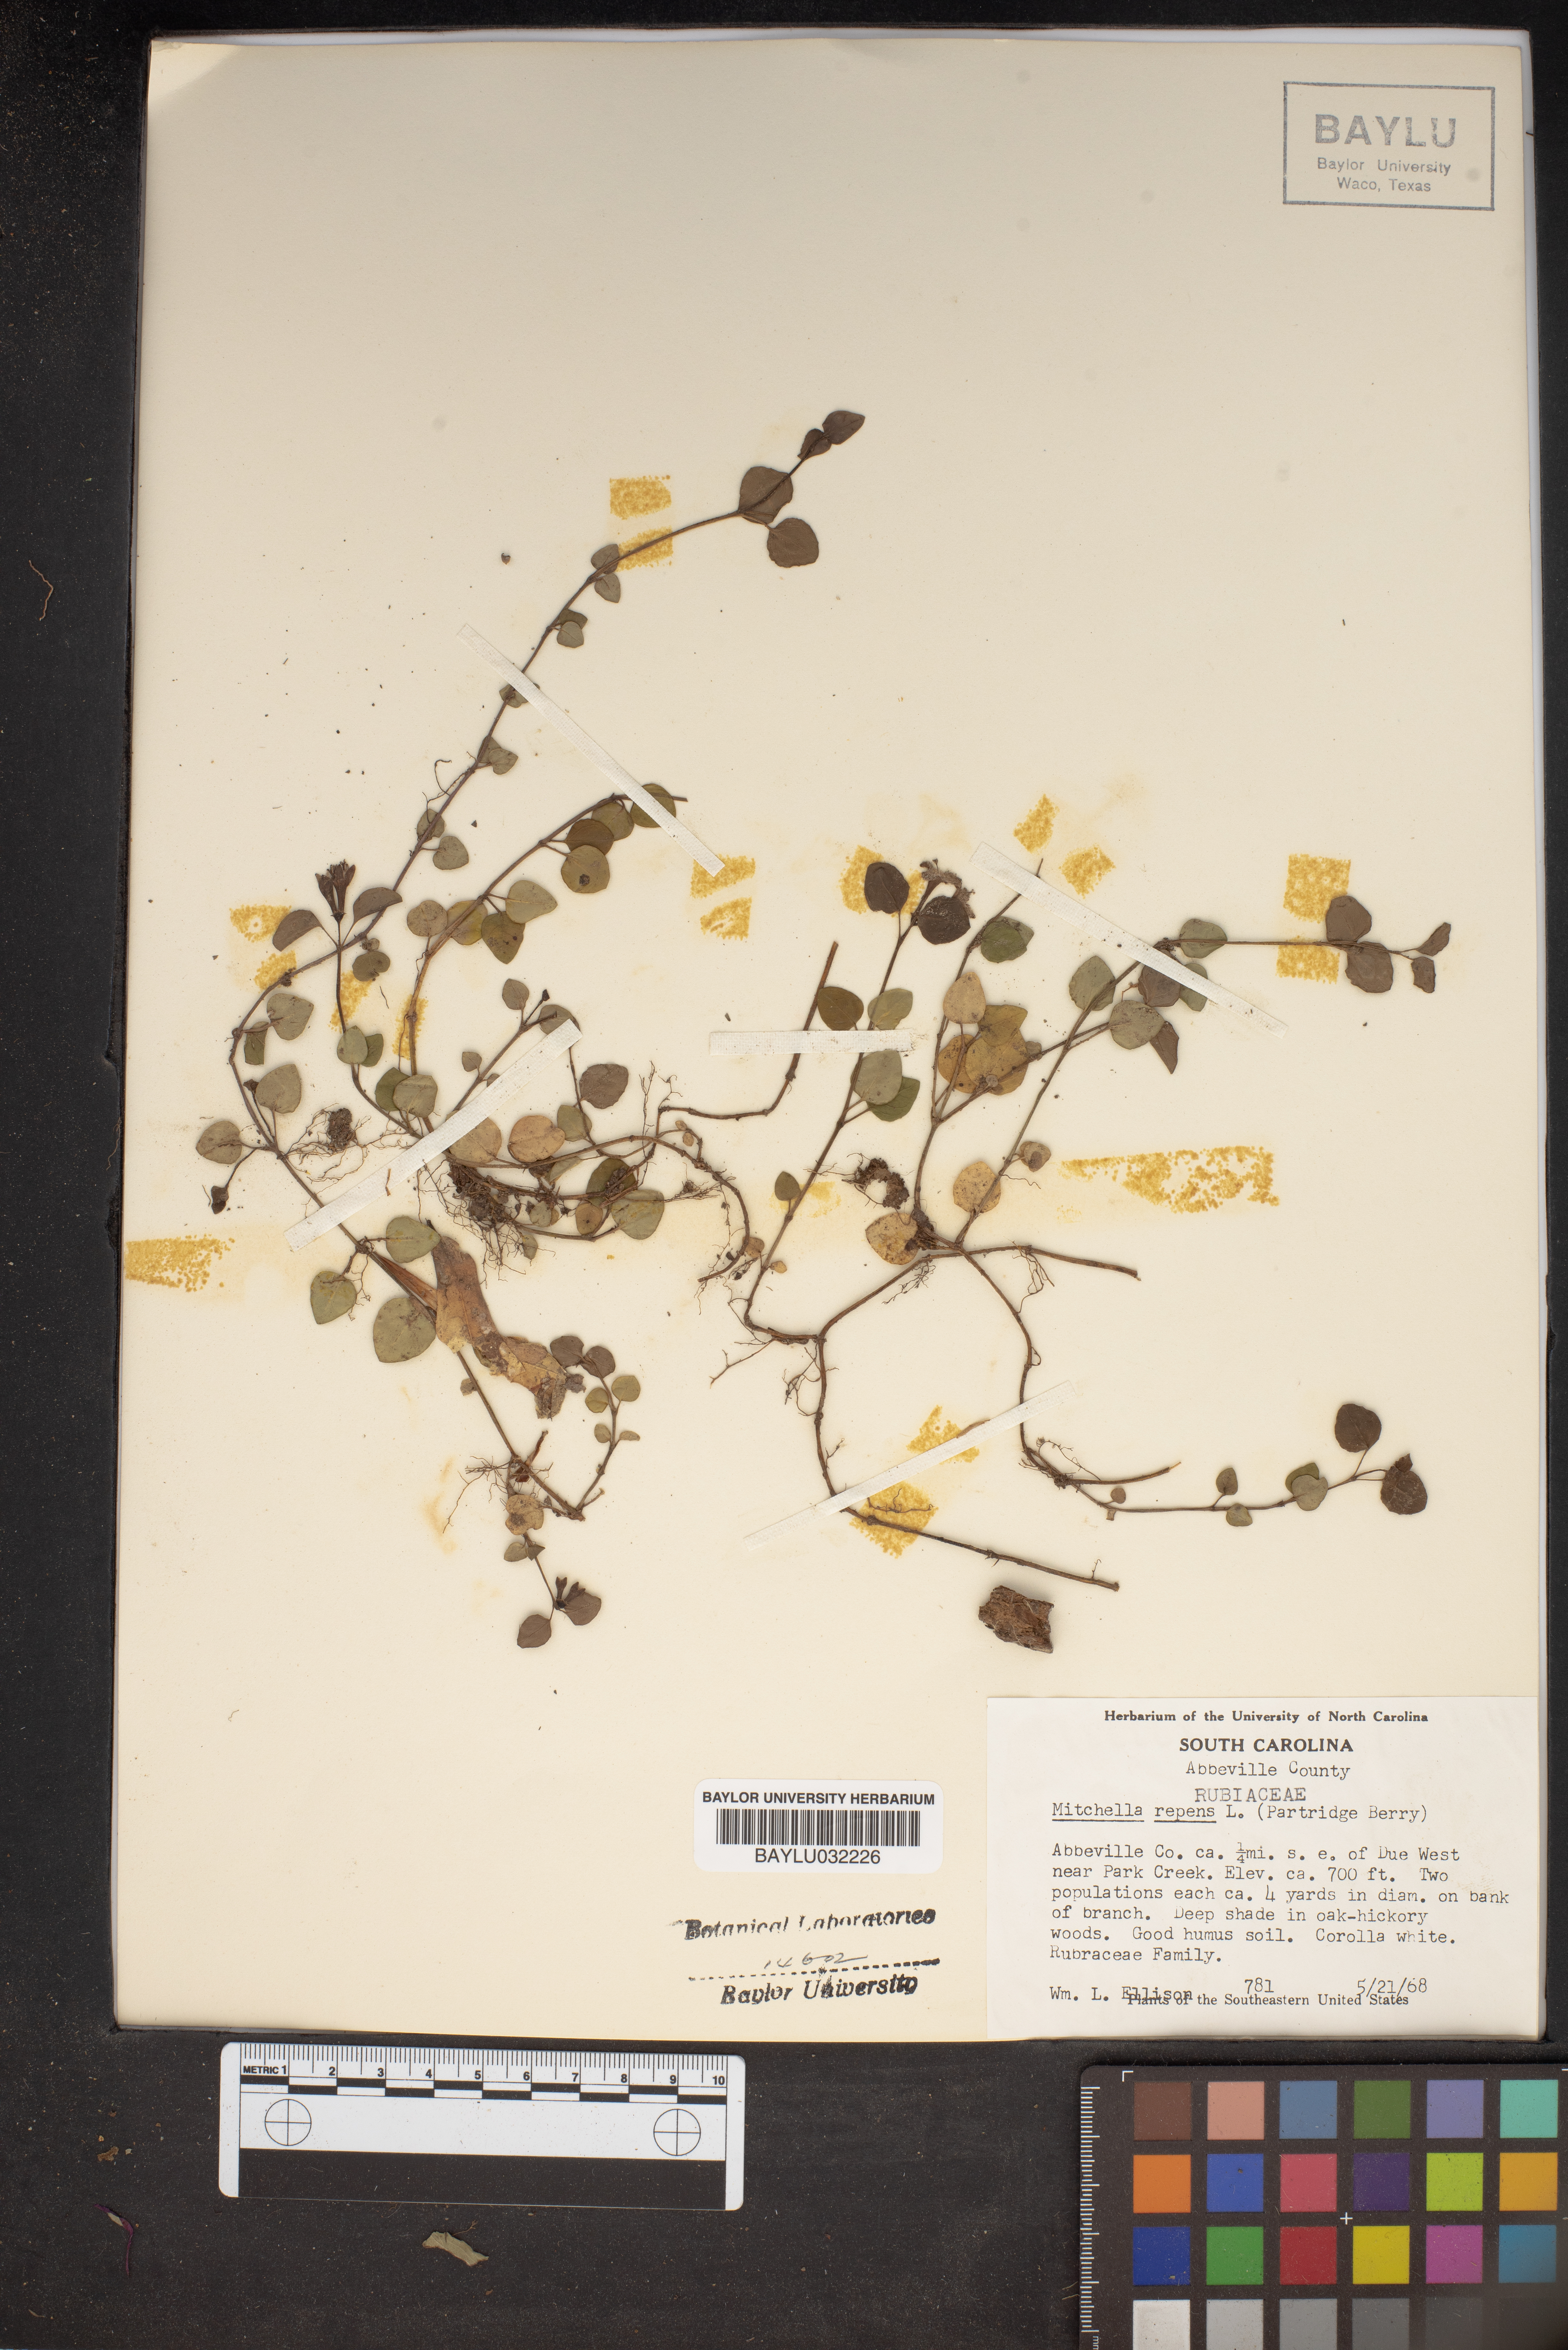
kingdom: Plantae
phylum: Tracheophyta
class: Magnoliopsida
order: Gentianales
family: Rubiaceae
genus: Mitchella
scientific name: Mitchella repens
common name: Partridge-berry
